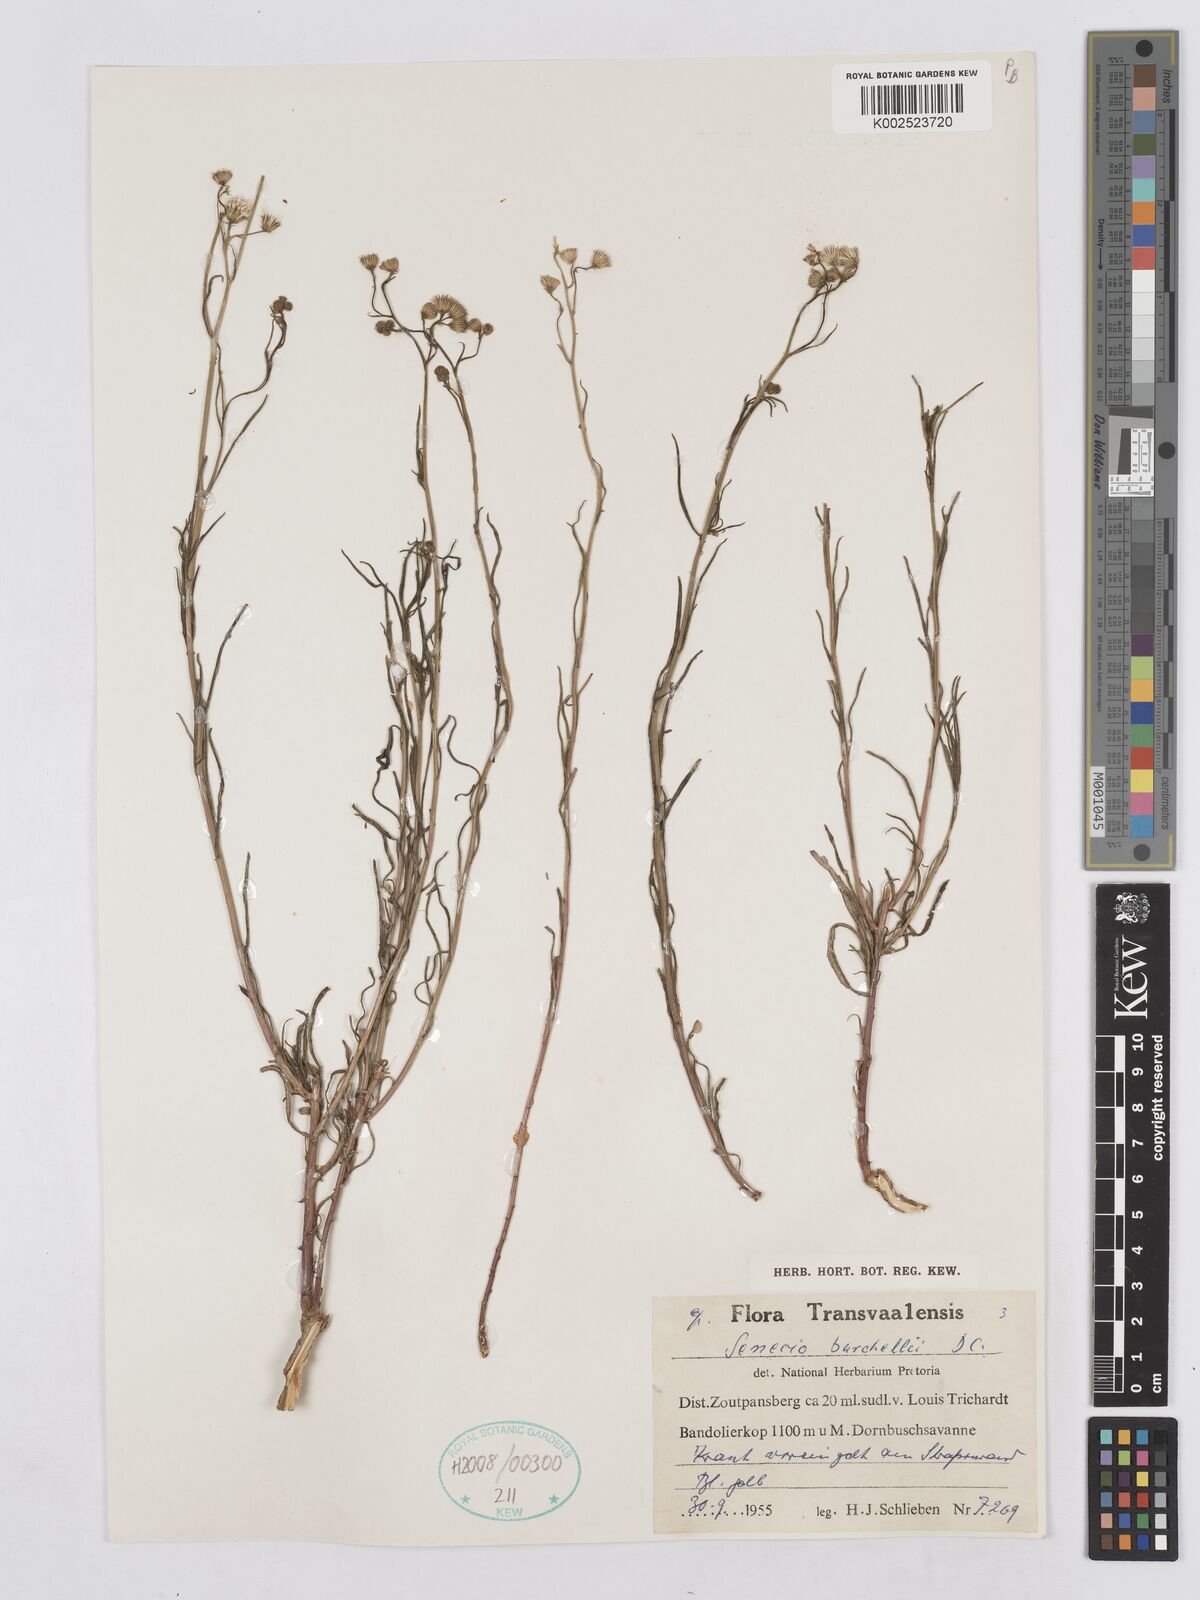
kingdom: Plantae
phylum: Tracheophyta
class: Magnoliopsida
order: Asterales
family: Asteraceae
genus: Senecio
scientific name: Senecio burchellii
